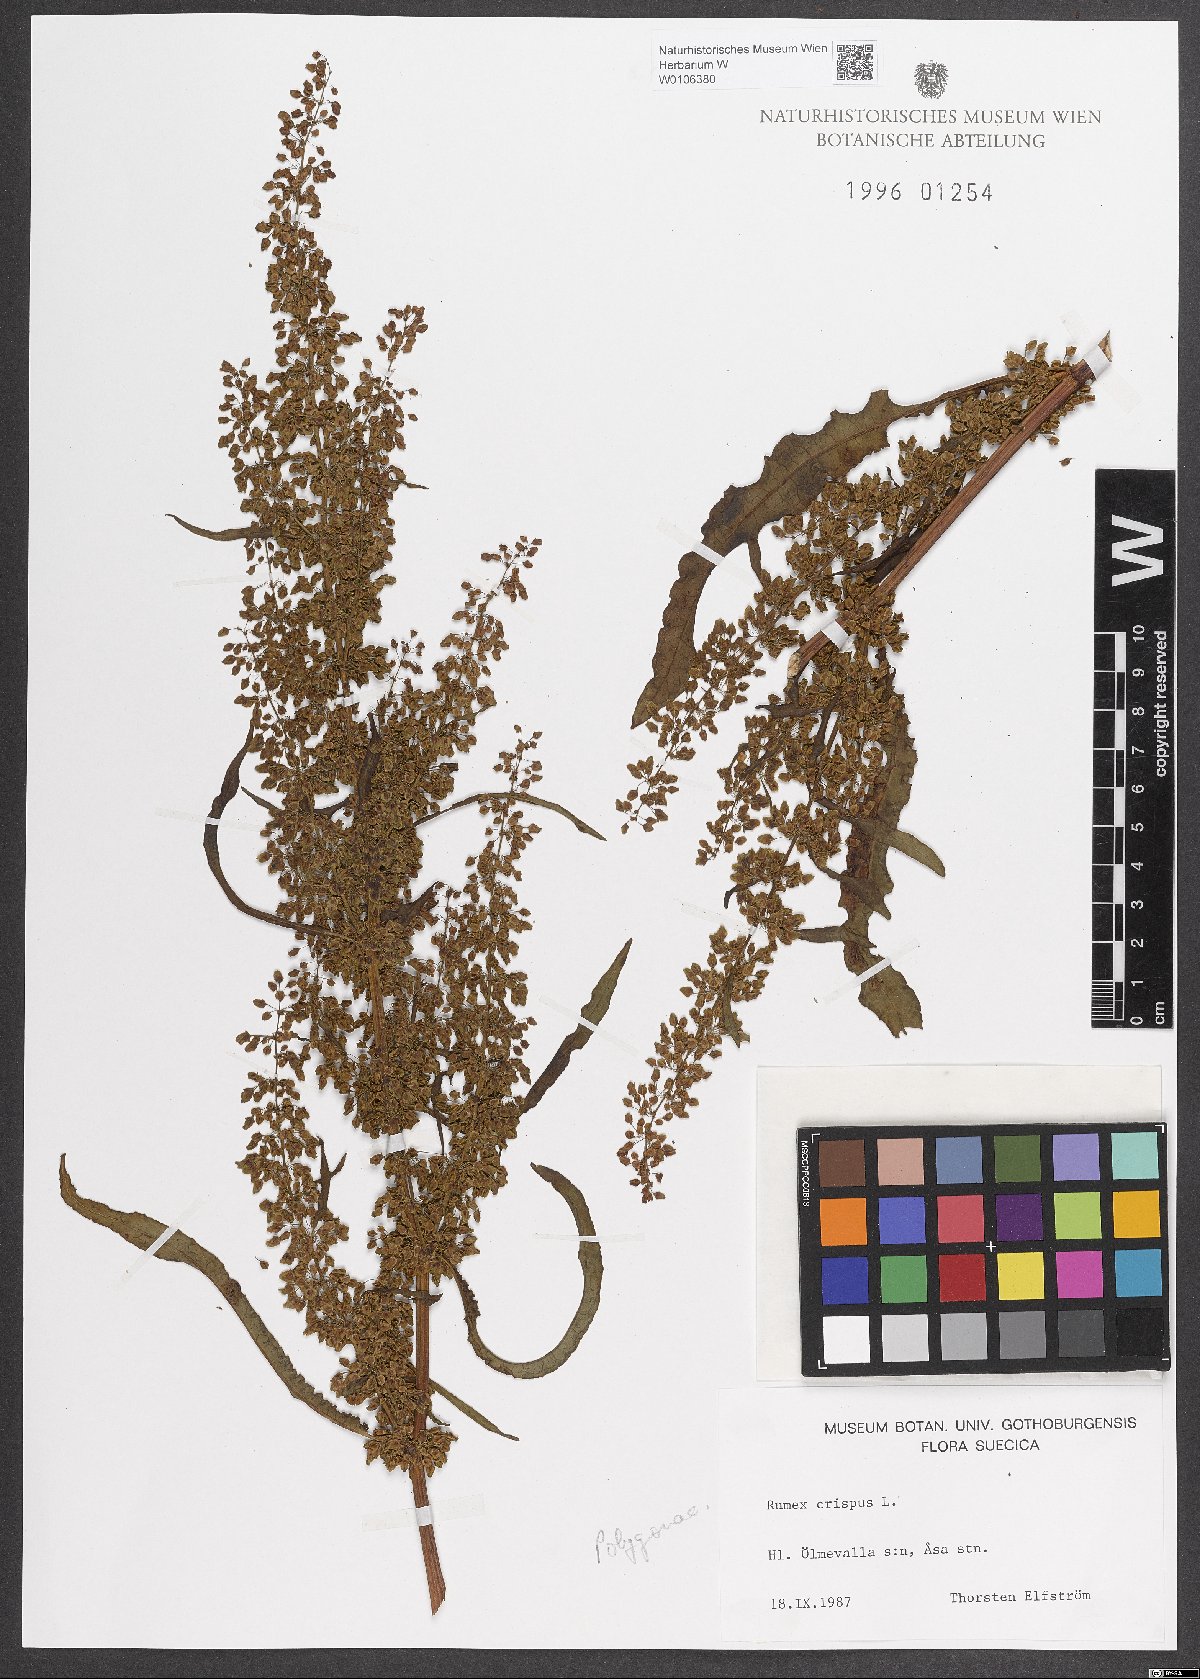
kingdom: Plantae
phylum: Tracheophyta
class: Magnoliopsida
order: Caryophyllales
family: Polygonaceae
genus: Rumex
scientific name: Rumex crispus
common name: Curled dock
